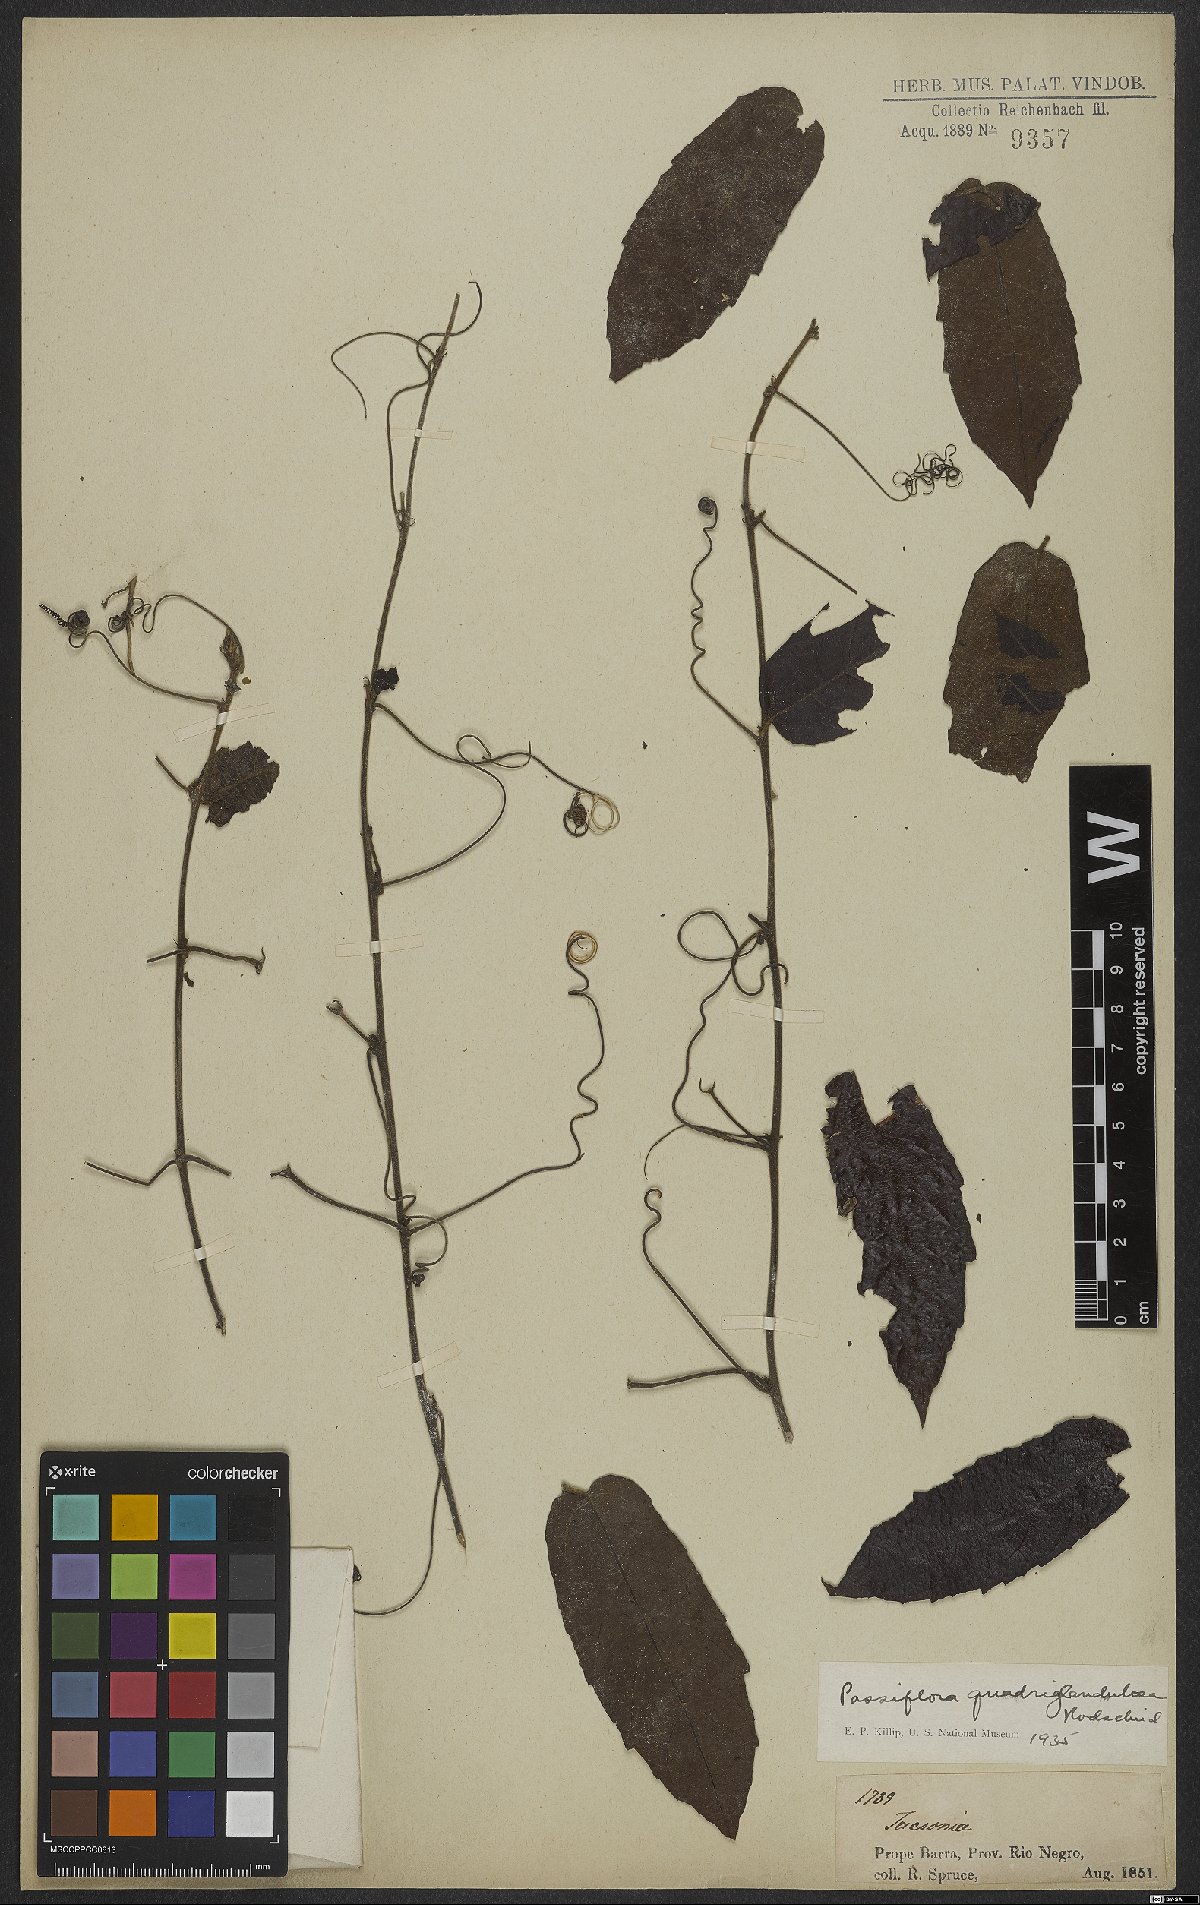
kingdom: Plantae
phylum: Tracheophyta
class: Magnoliopsida
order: Malpighiales
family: Passifloraceae
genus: Passiflora
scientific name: Passiflora quadriglandulosa
